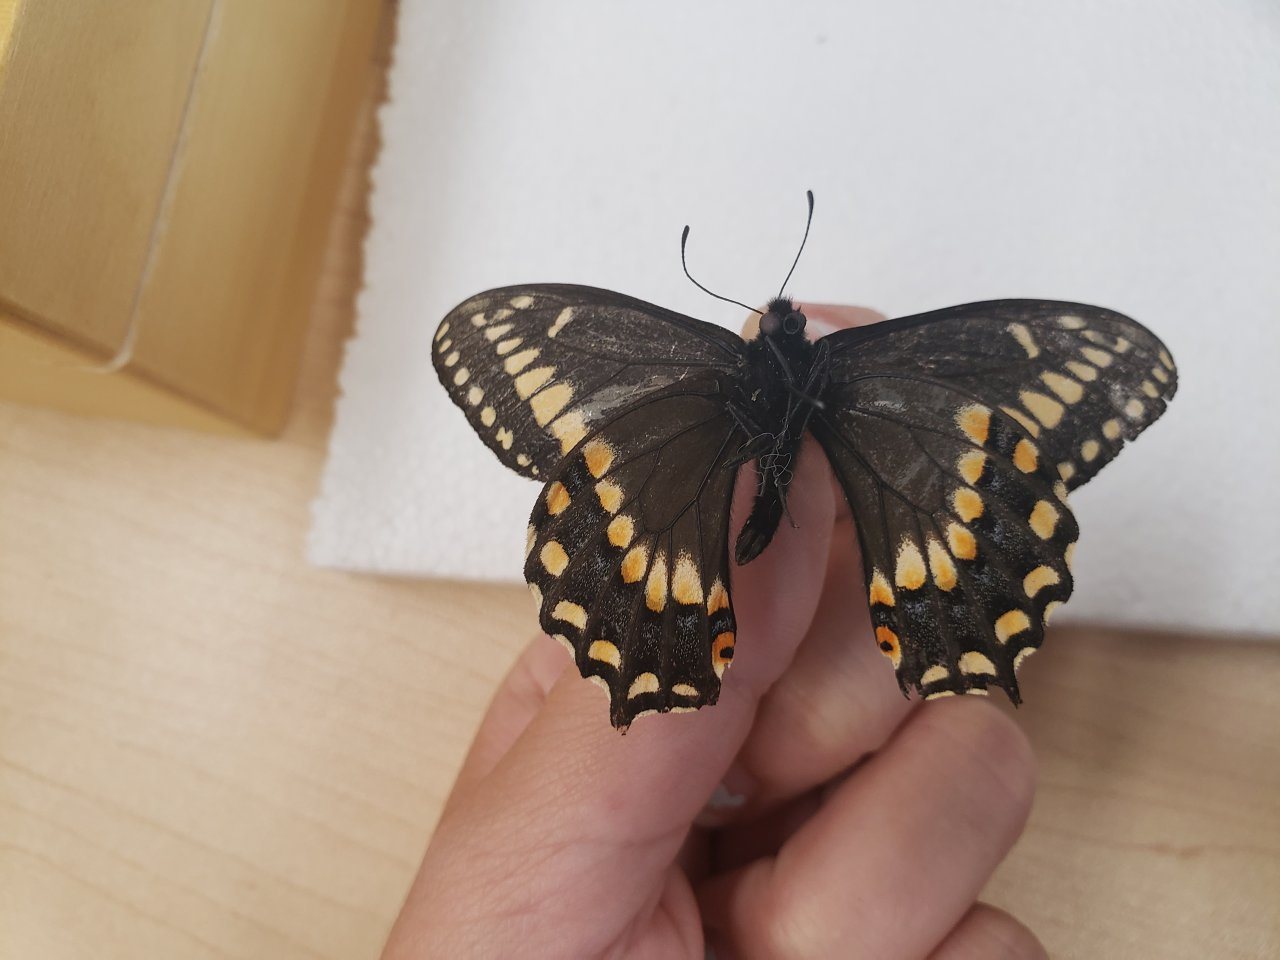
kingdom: Animalia
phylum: Arthropoda
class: Insecta
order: Lepidoptera
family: Papilionidae
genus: Papilio
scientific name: Papilio brevicauda
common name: Short-tailed Swallowtail
